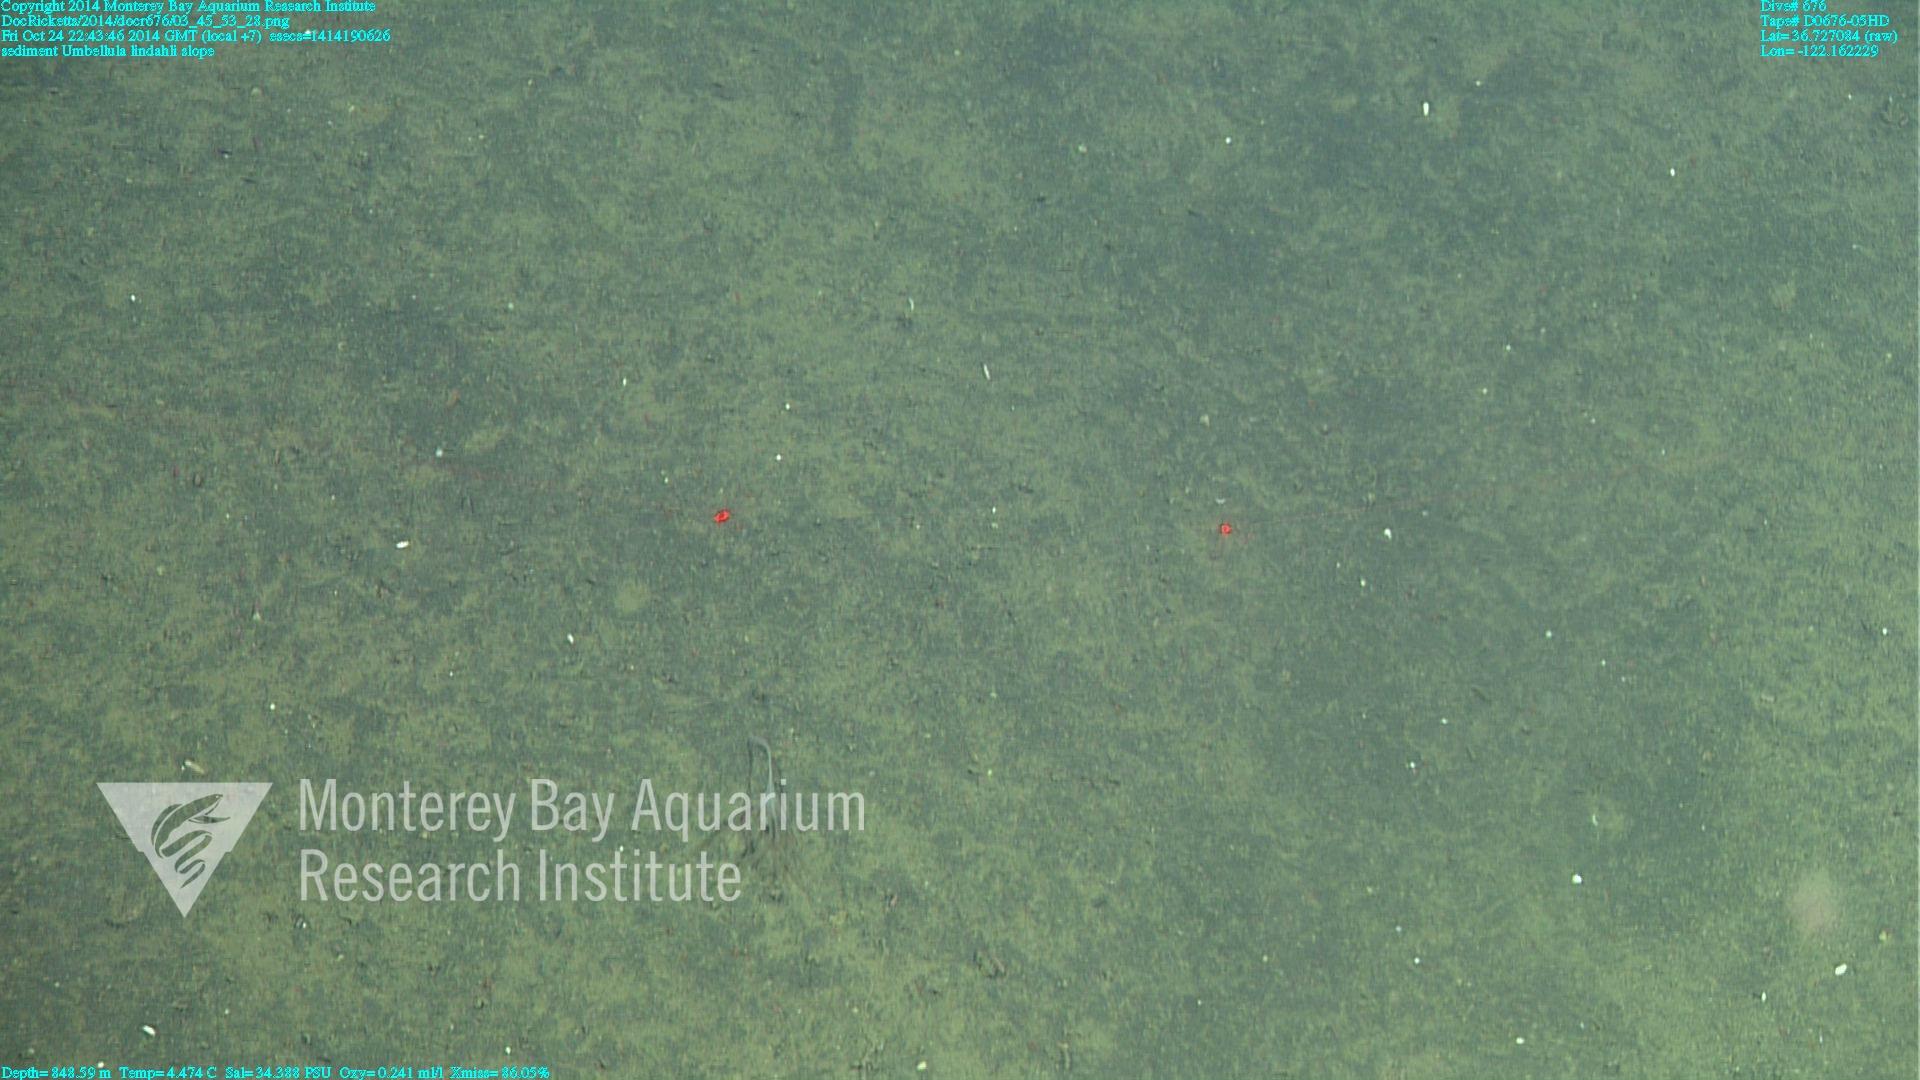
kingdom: Animalia
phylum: Cnidaria
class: Anthozoa
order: Scleralcyonacea
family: Umbellulidae
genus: Umbellula
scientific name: Umbellula lindahli
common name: Lindahl's droopy sea pen
